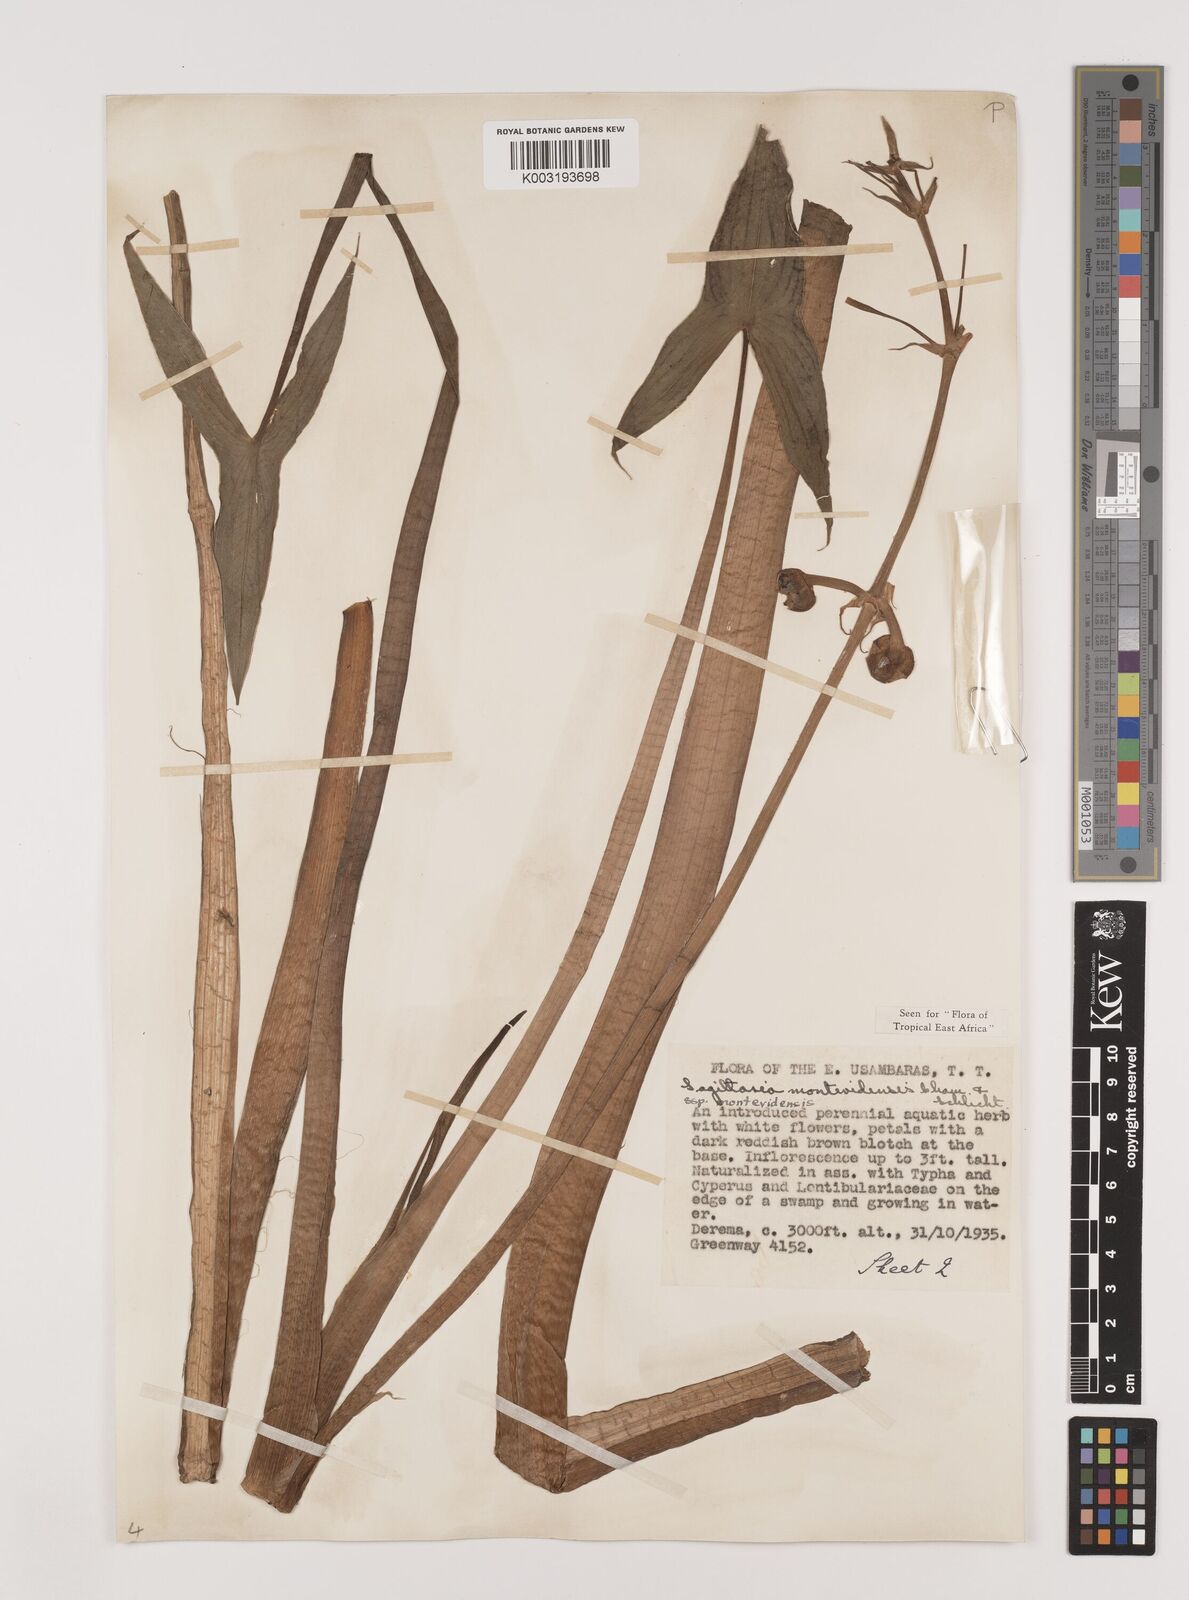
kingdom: Plantae
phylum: Tracheophyta
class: Liliopsida
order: Alismatales
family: Alismataceae
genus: Sagittaria
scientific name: Sagittaria montevidensis
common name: Giant arrowhead
